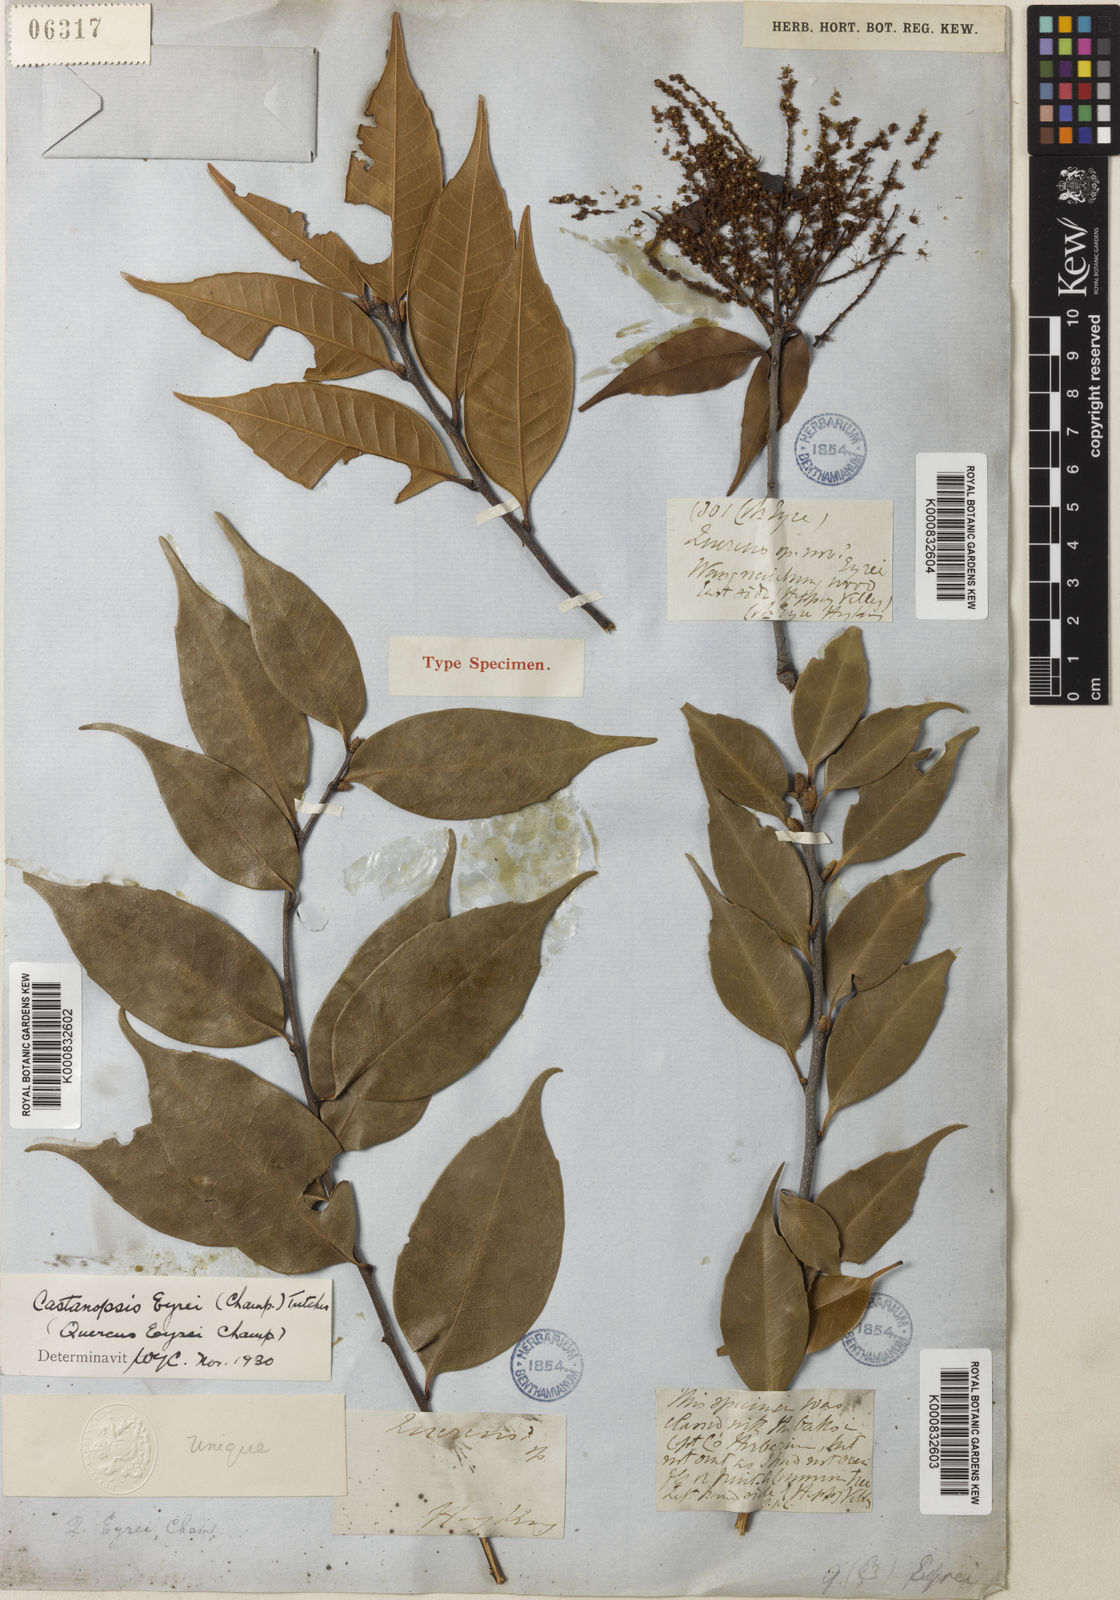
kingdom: Plantae
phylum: Tracheophyta
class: Magnoliopsida
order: Fagales
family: Fagaceae
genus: Castanopsis
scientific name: Castanopsis eyrei
